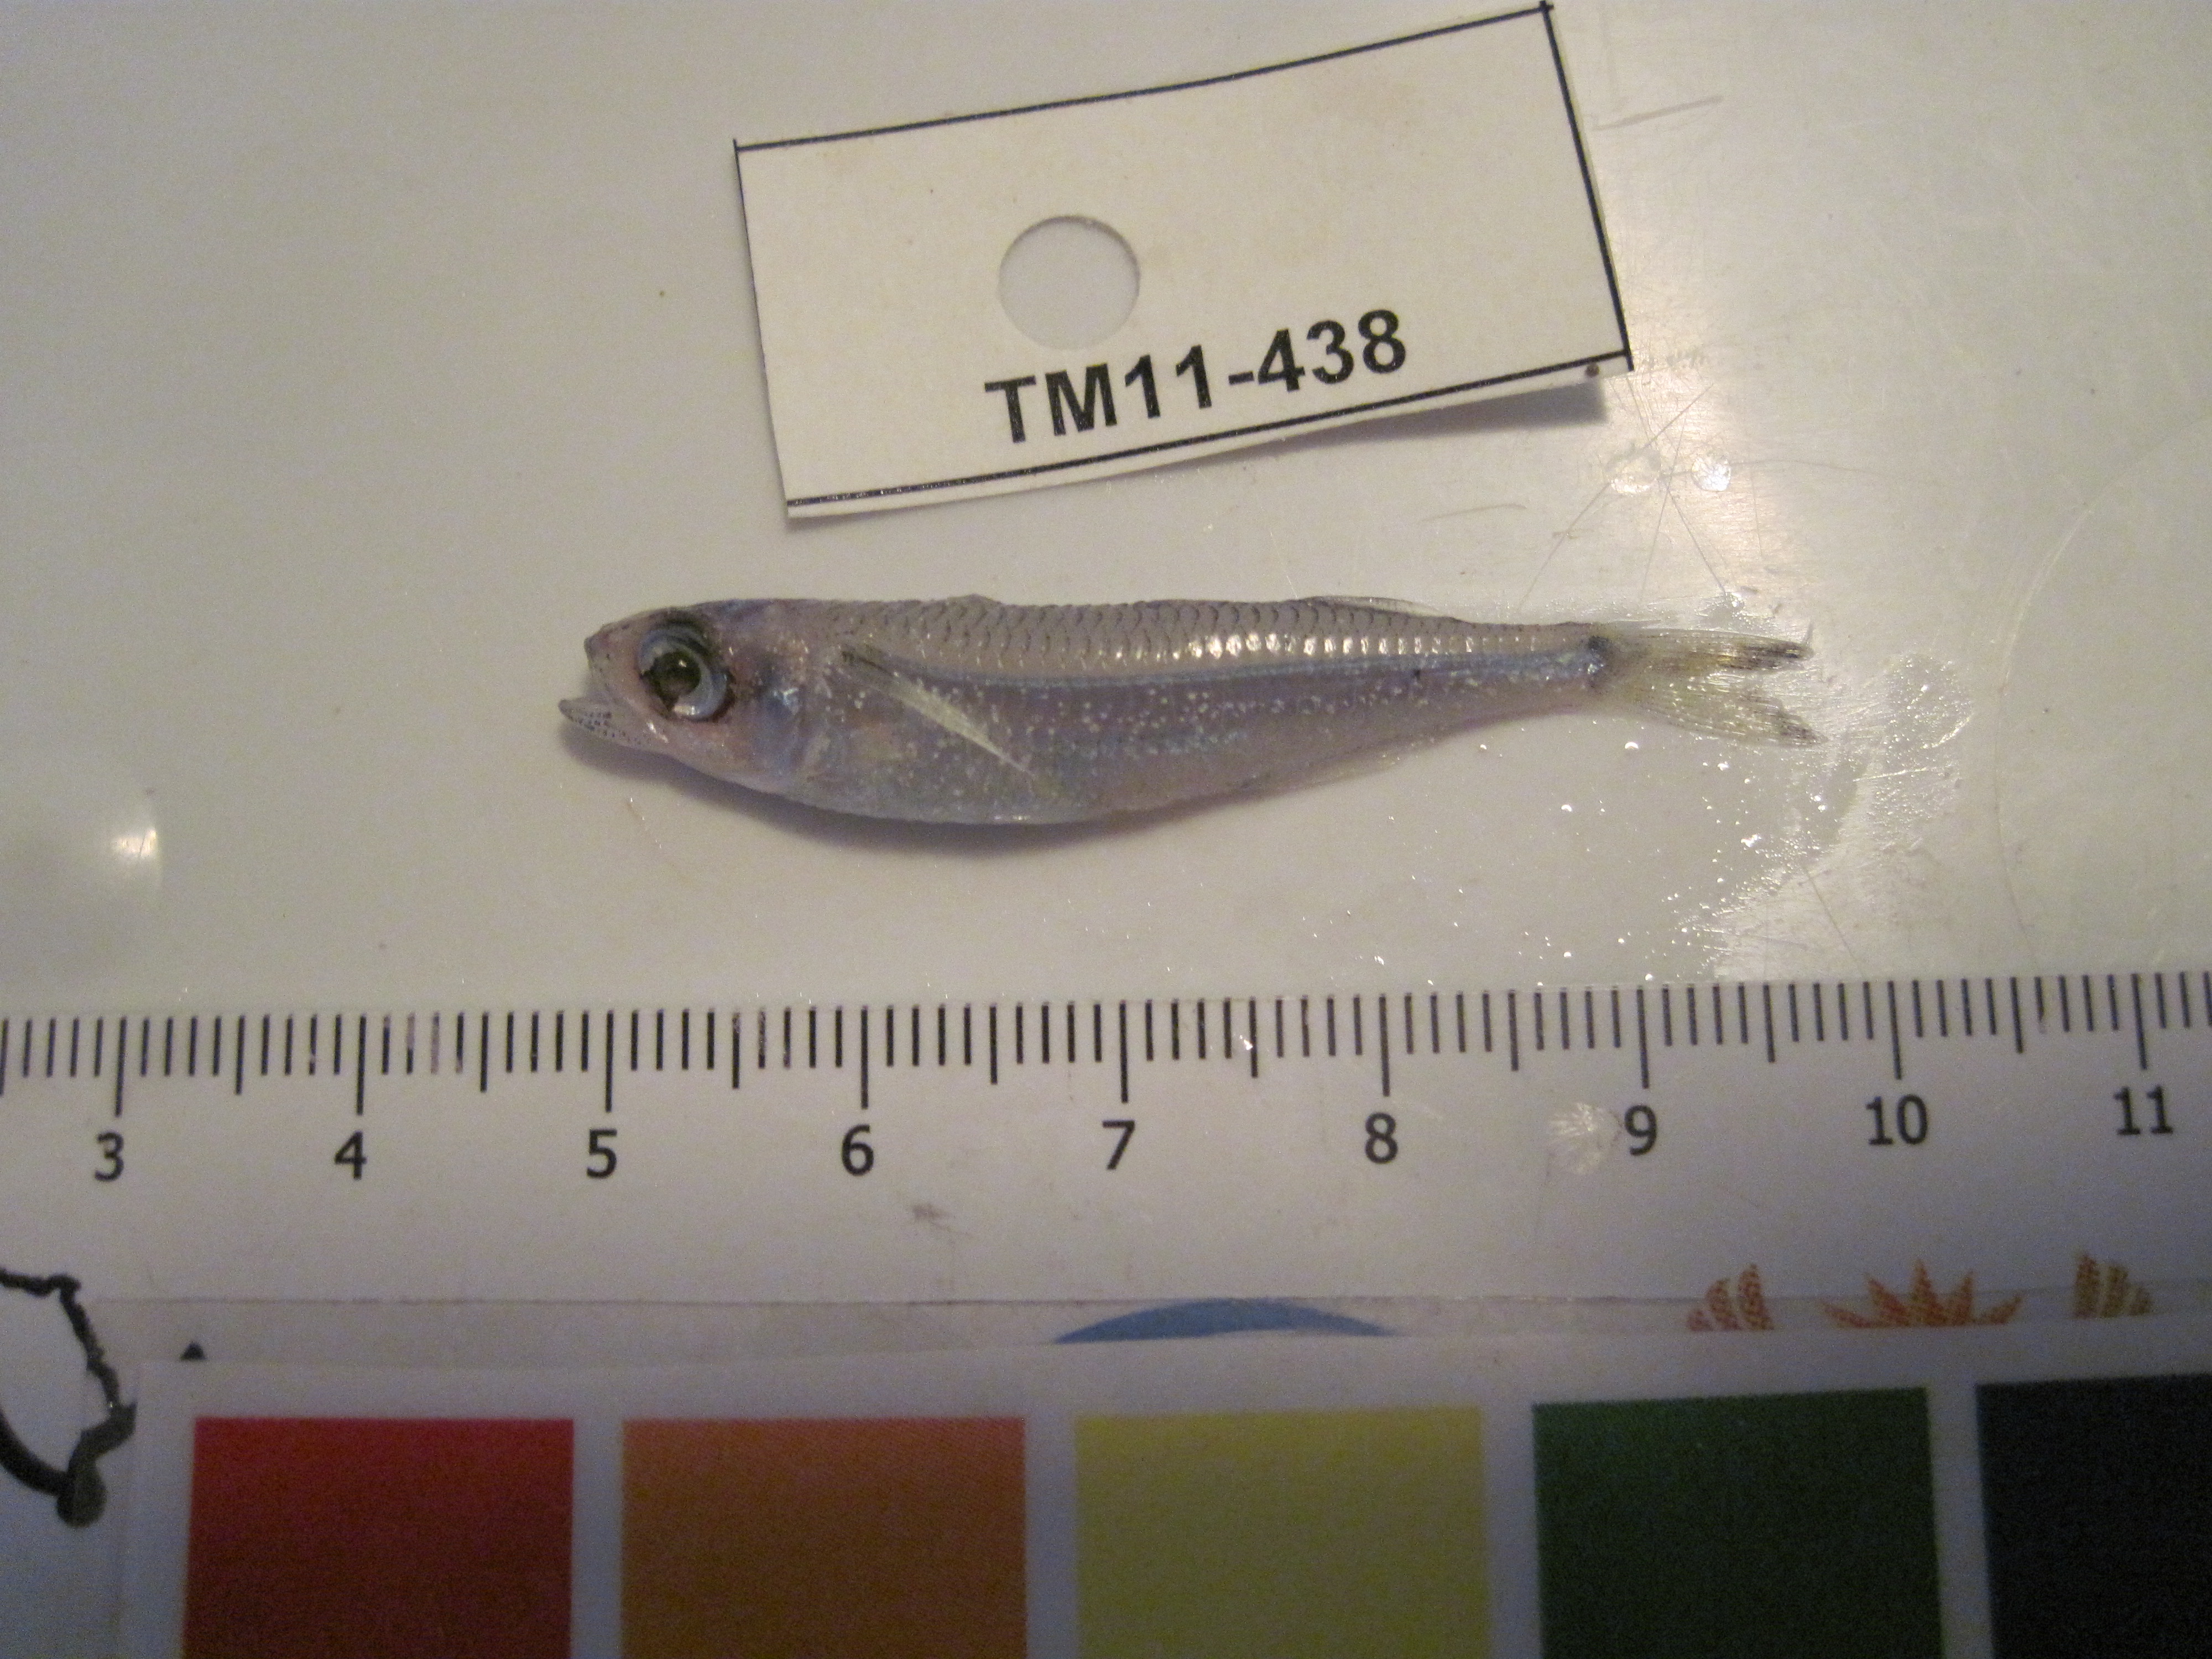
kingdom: Animalia
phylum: Chordata
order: Atheriniformes
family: Atherinidae
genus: Atherinomorus
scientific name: Atherinomorus duodecimalis
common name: Tropical silverside
